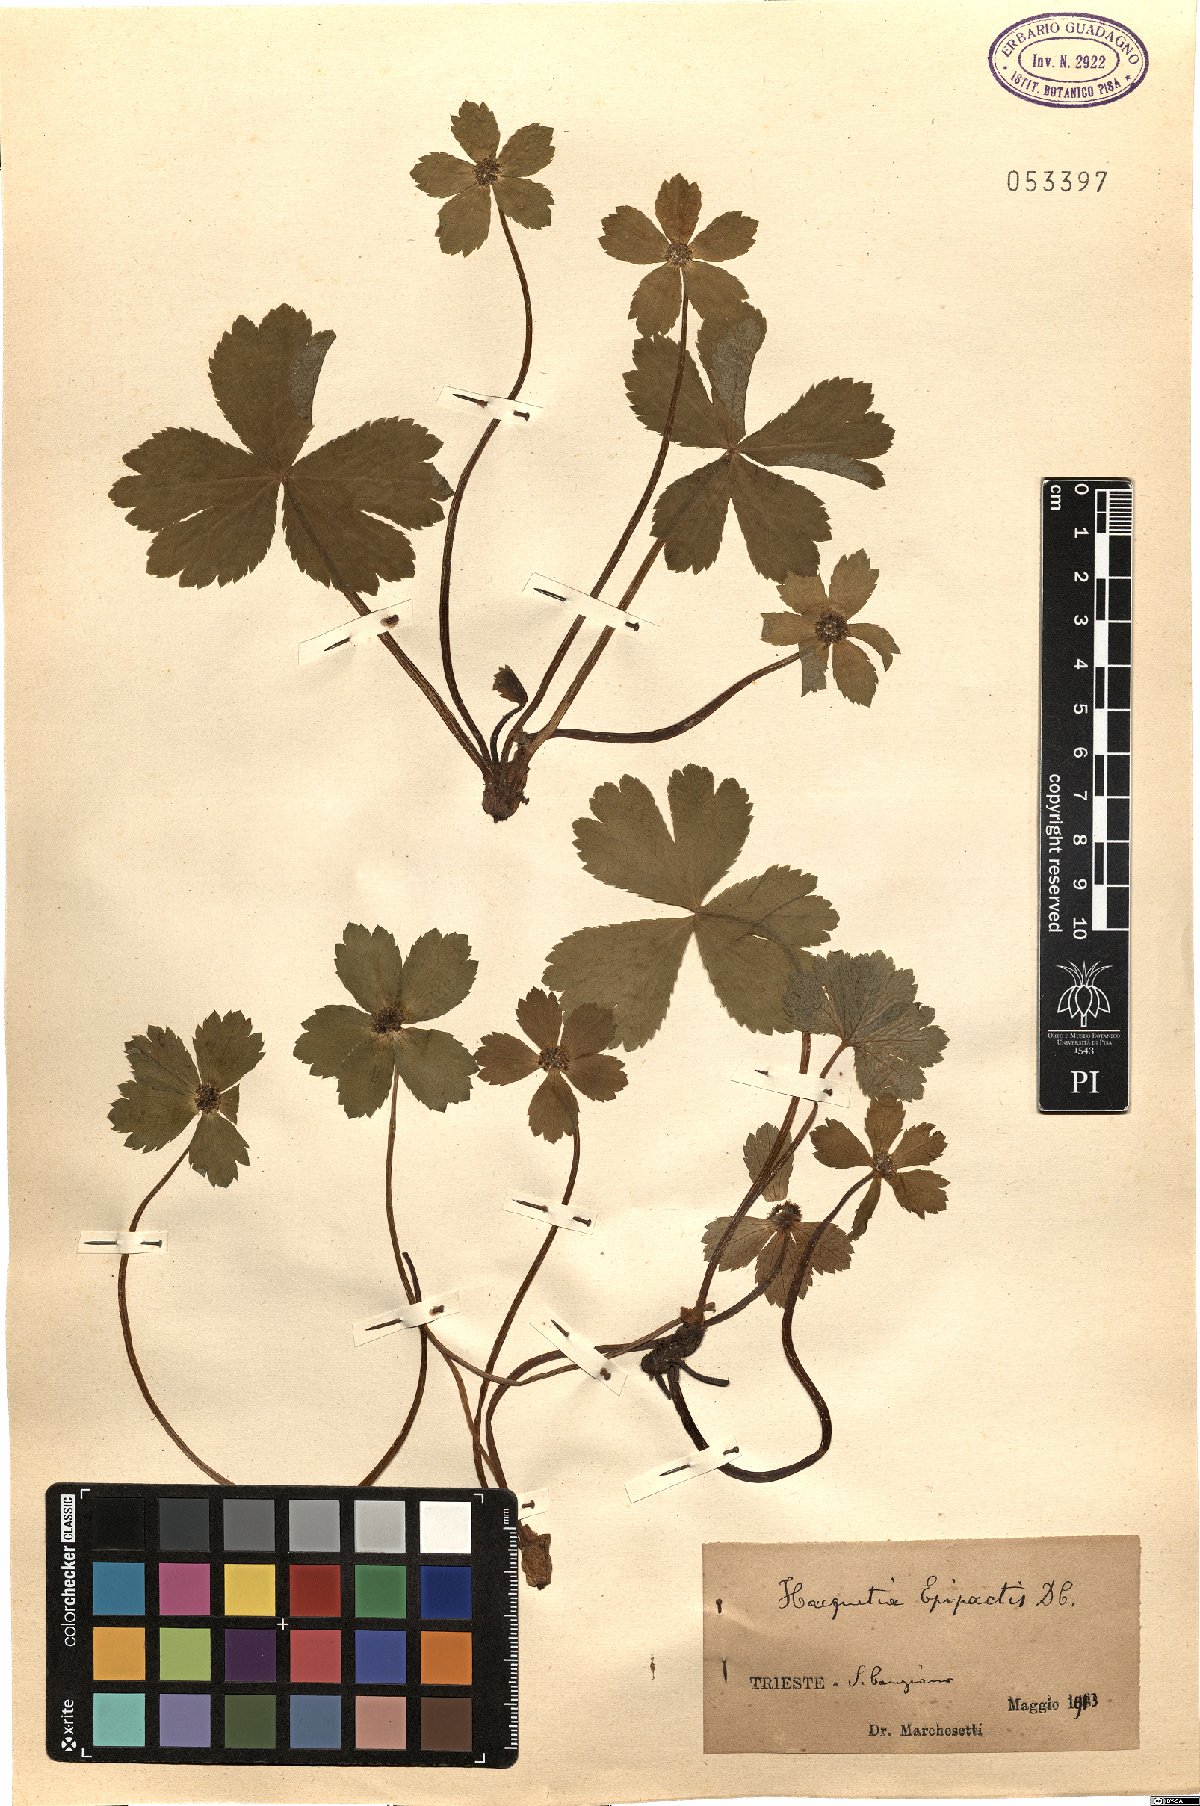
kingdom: Plantae
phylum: Tracheophyta
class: Magnoliopsida
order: Apiales
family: Apiaceae
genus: Sanicula
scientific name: Sanicula epipactis
